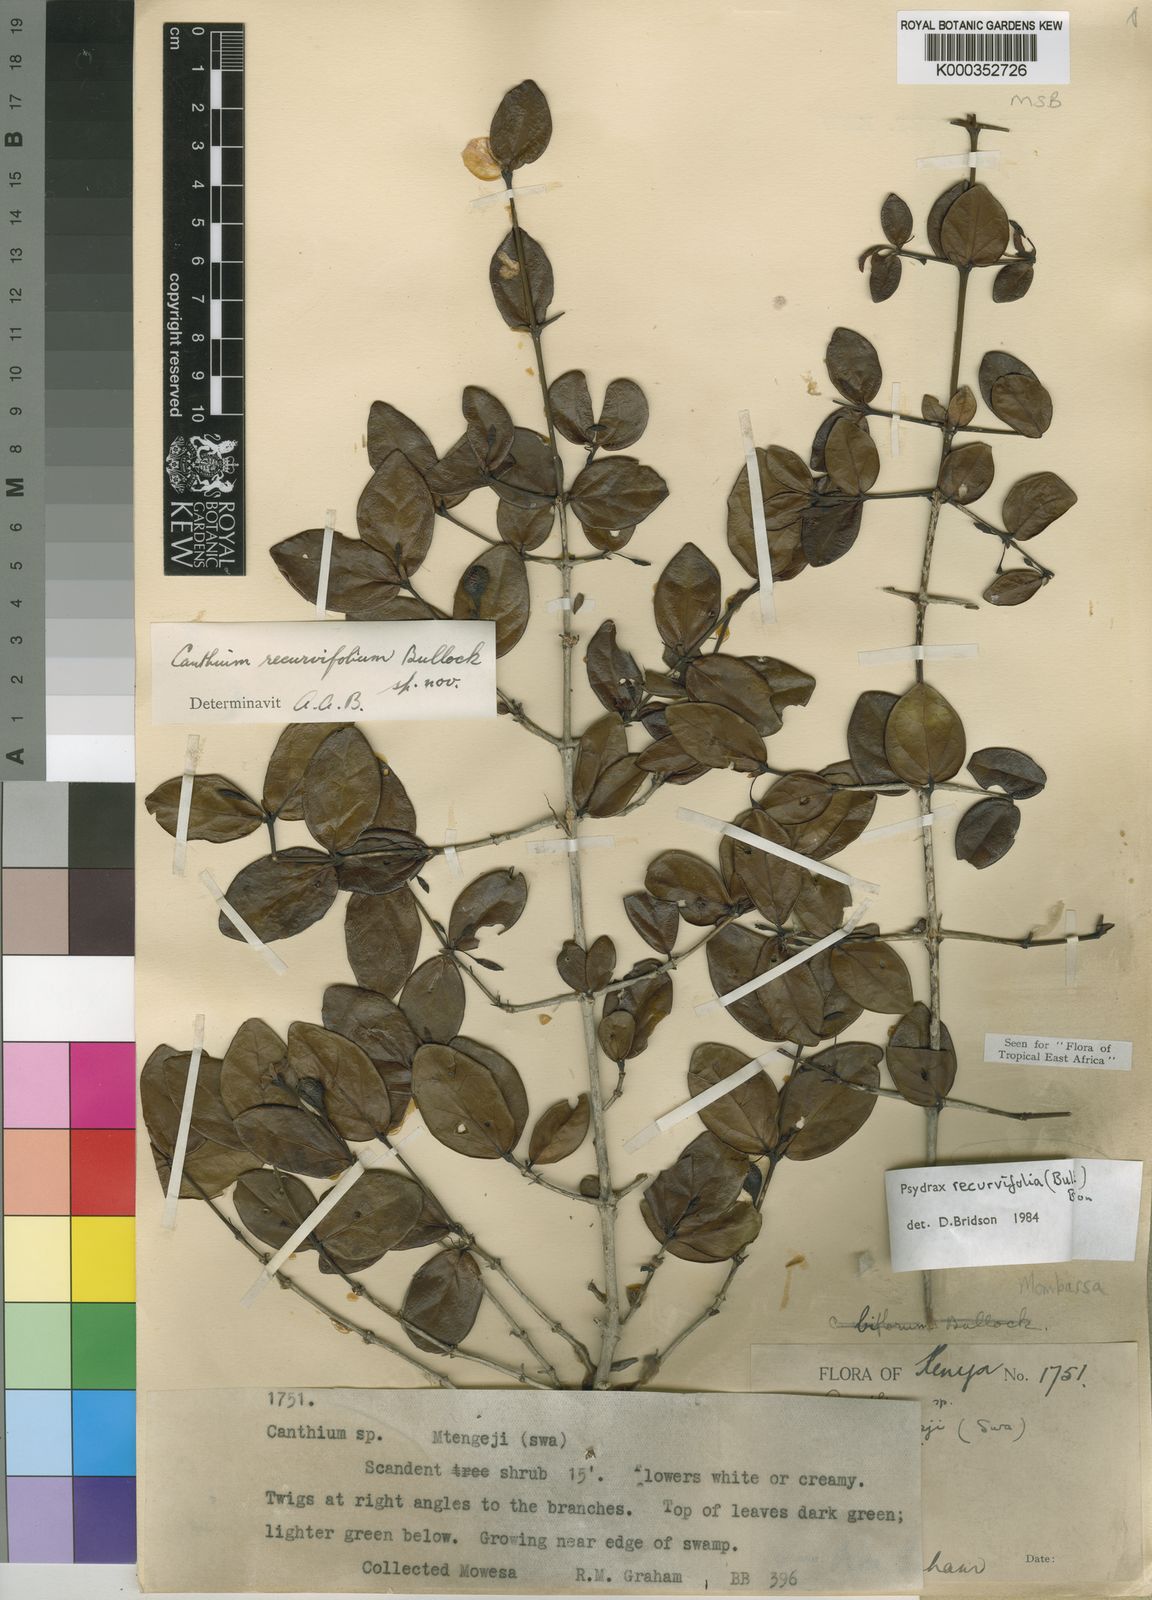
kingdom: Plantae
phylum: Tracheophyta
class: Magnoliopsida
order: Gentianales
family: Rubiaceae
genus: Psydrax
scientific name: Psydrax recurvifolius
